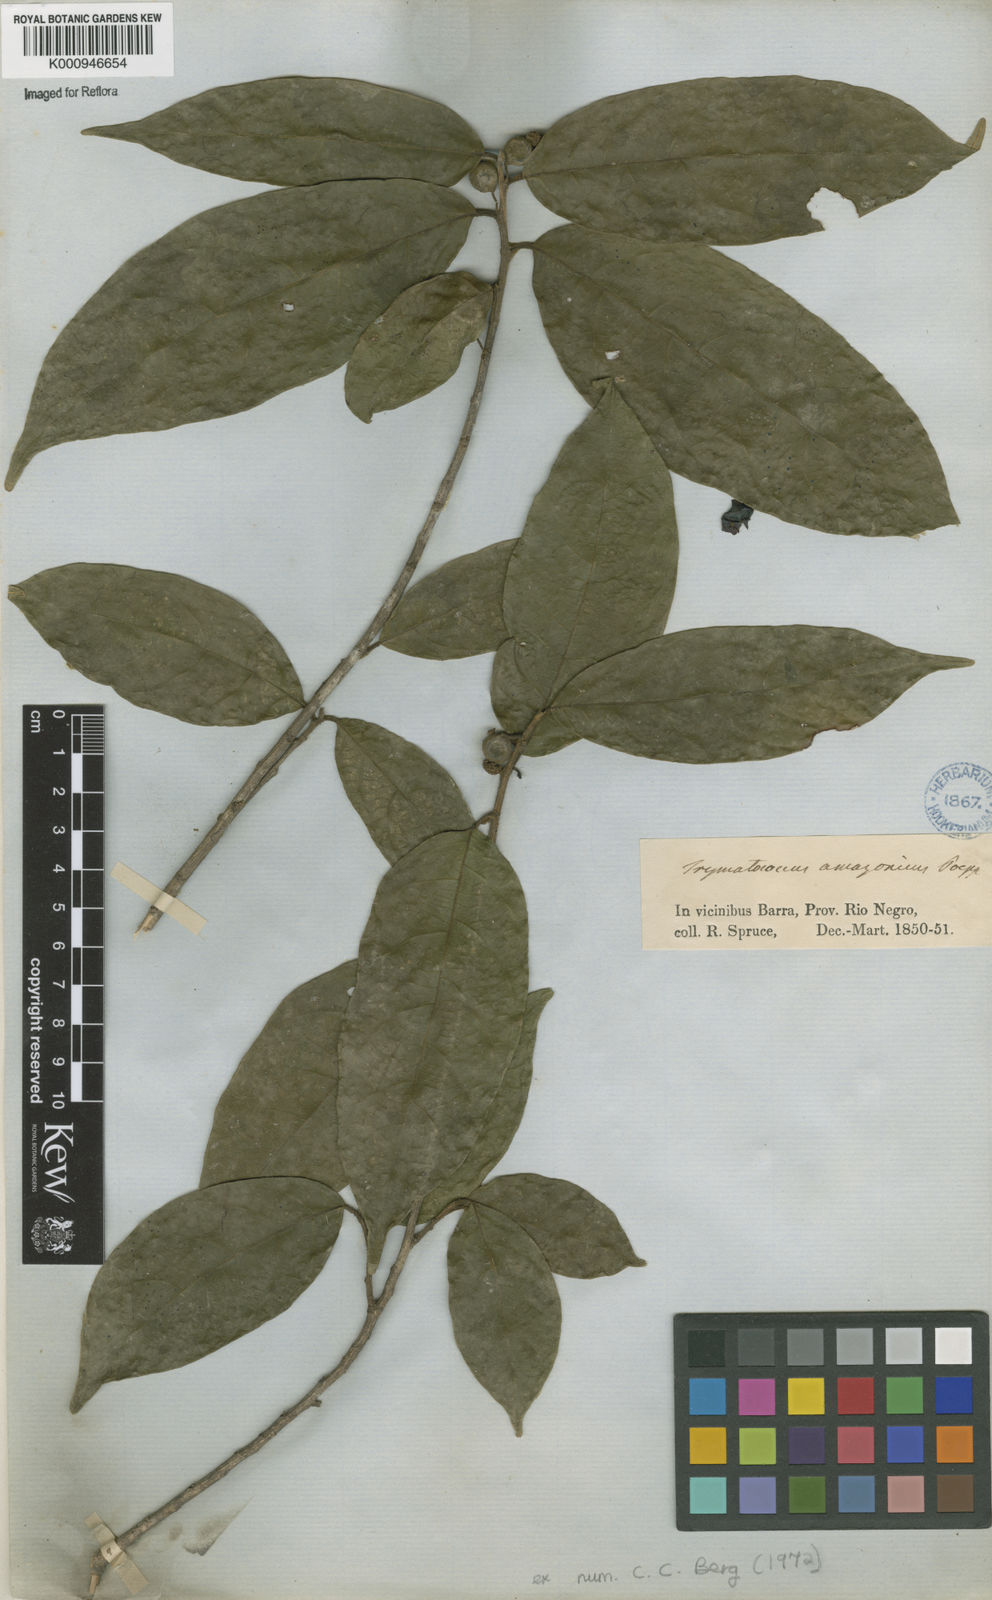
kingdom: Plantae
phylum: Tracheophyta
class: Magnoliopsida
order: Rosales
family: Moraceae
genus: Brosimum
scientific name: Brosimum amazonicum
